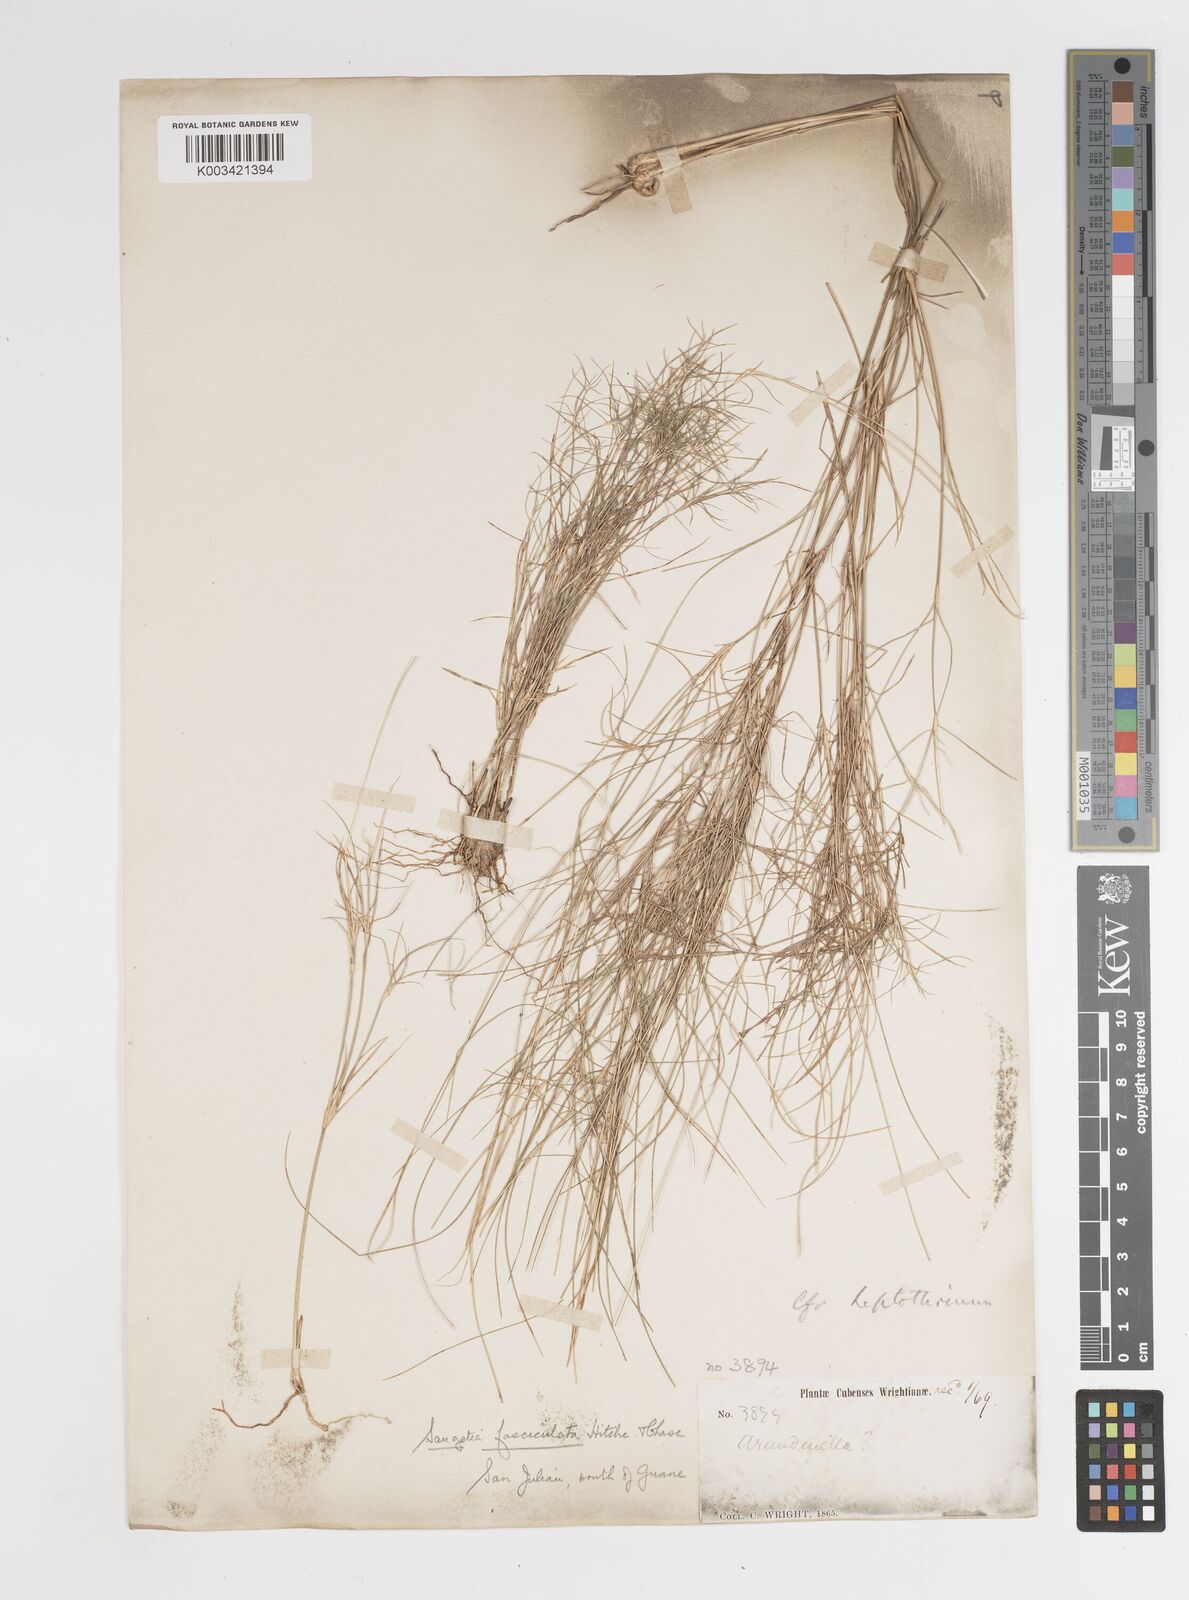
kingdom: Plantae
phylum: Tracheophyta
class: Liliopsida
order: Poales
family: Poaceae
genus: Enteropogon
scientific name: Enteropogon
